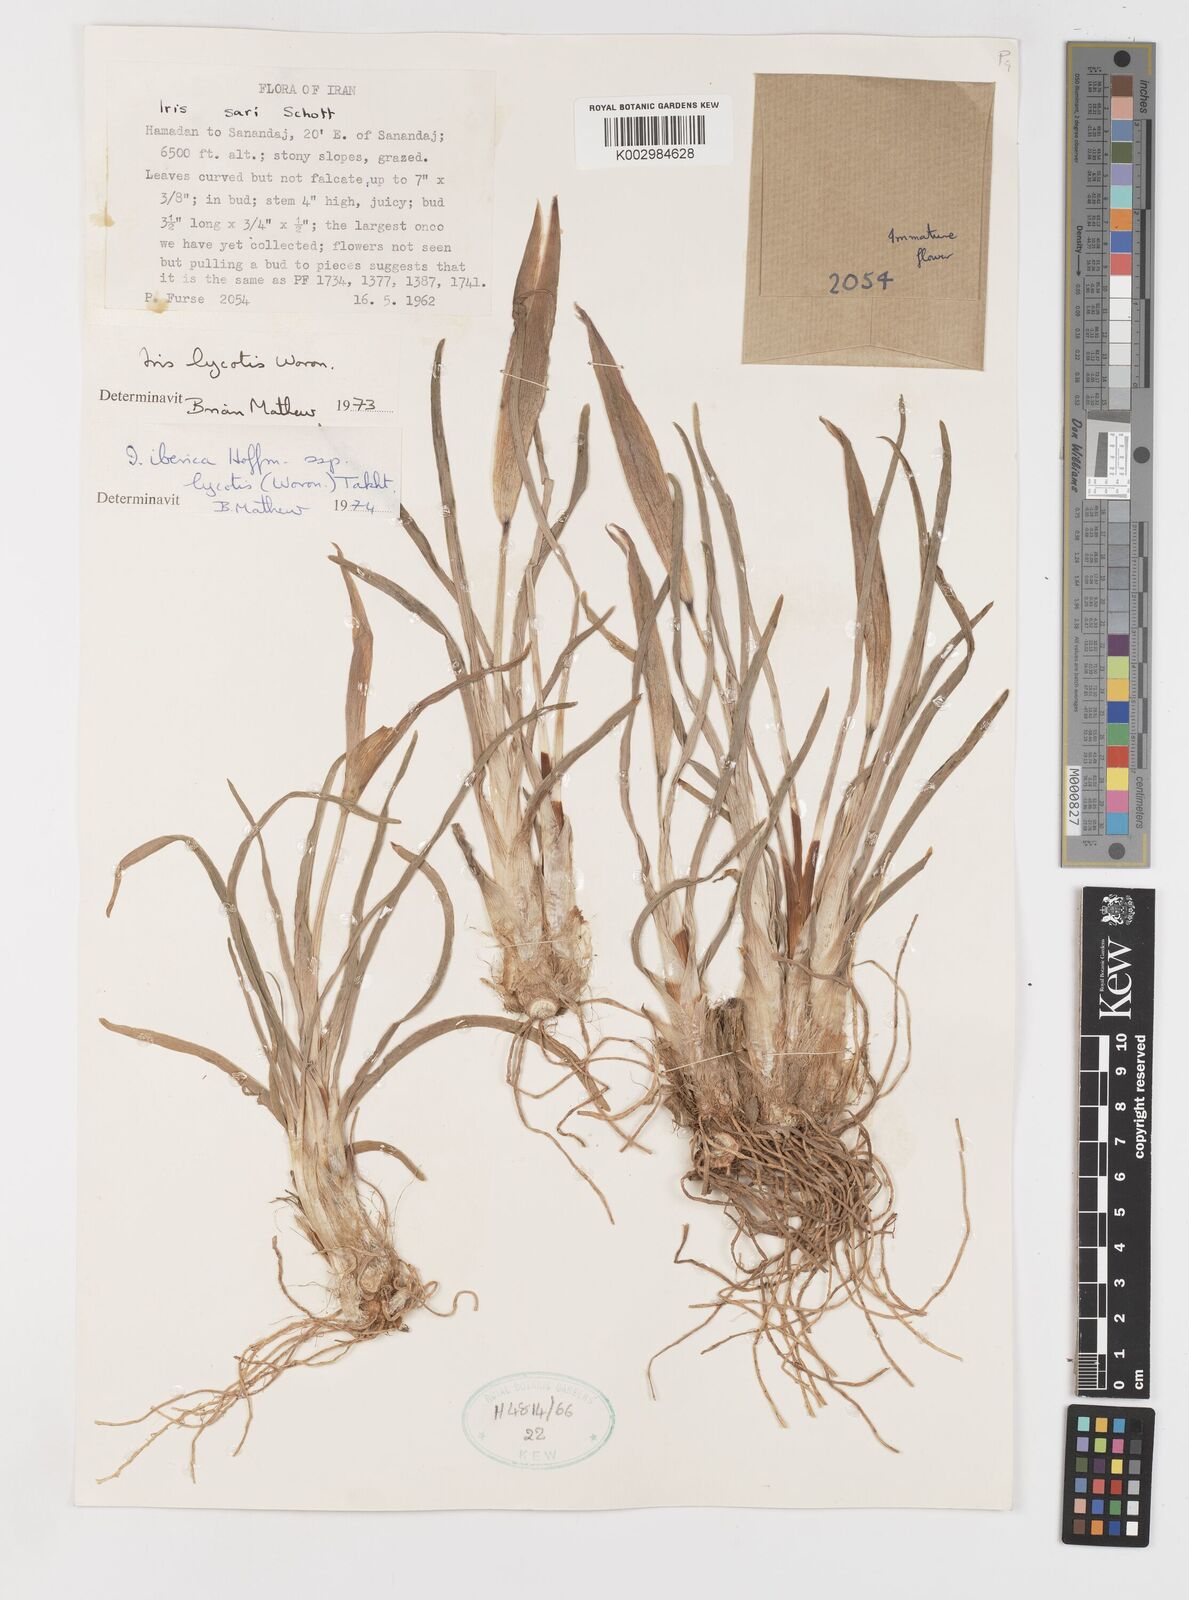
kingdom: Plantae
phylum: Tracheophyta
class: Liliopsida
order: Asparagales
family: Iridaceae
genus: Iris
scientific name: Iris lycotis
